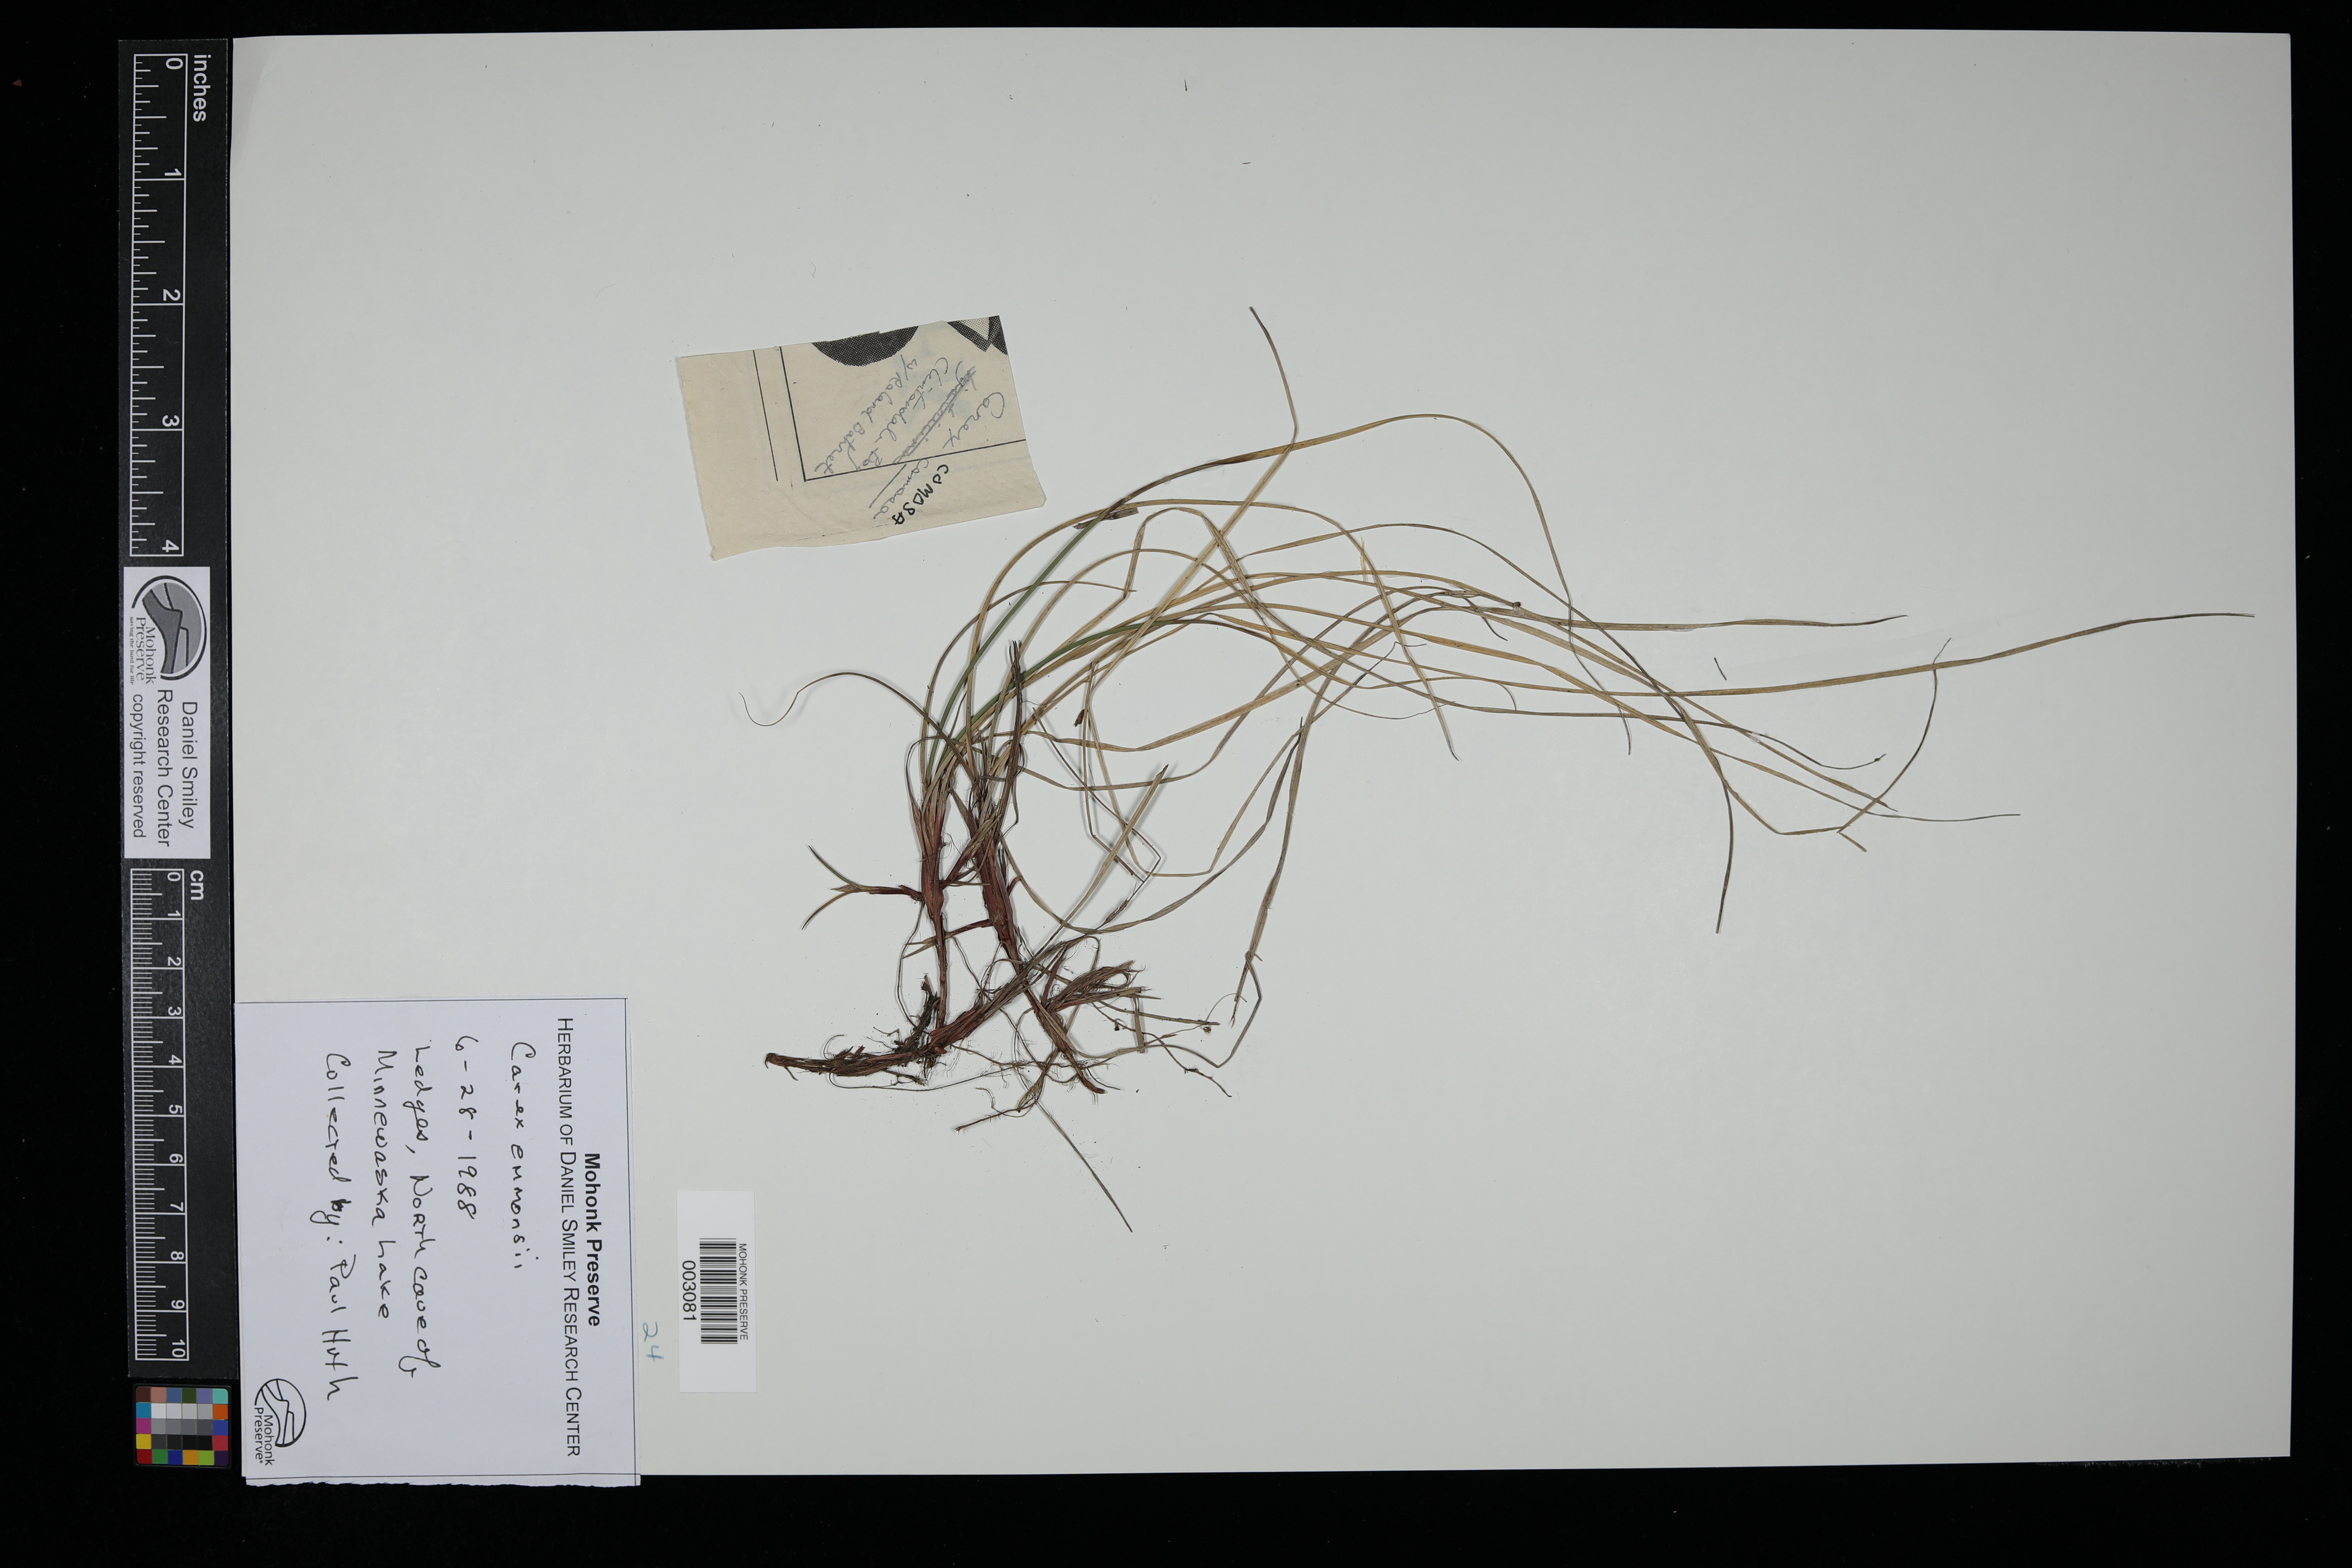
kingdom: Plantae
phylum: Tracheophyta
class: Liliopsida
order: Poales
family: Cyperaceae
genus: Carex
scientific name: Carex albicans
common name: Bellow-beaked sedge
